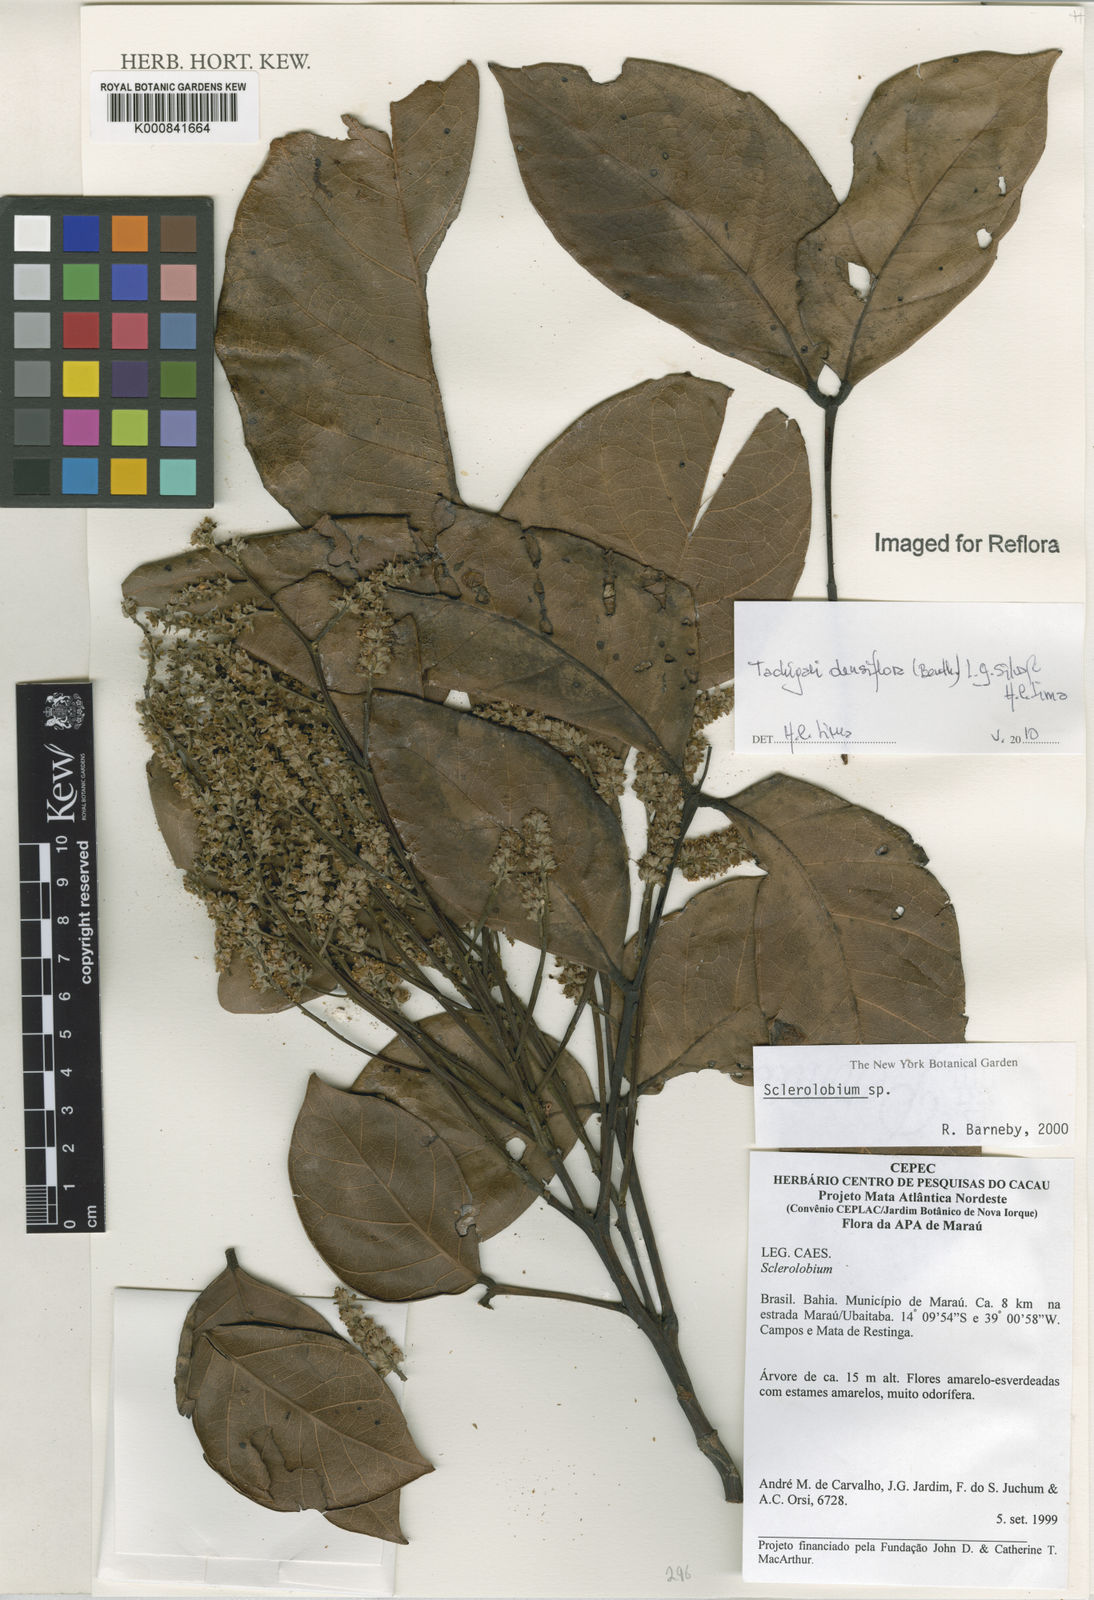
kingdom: Plantae
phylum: Tracheophyta
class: Magnoliopsida
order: Fabales
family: Fabaceae
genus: Tachigali
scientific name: Tachigali densiflora
